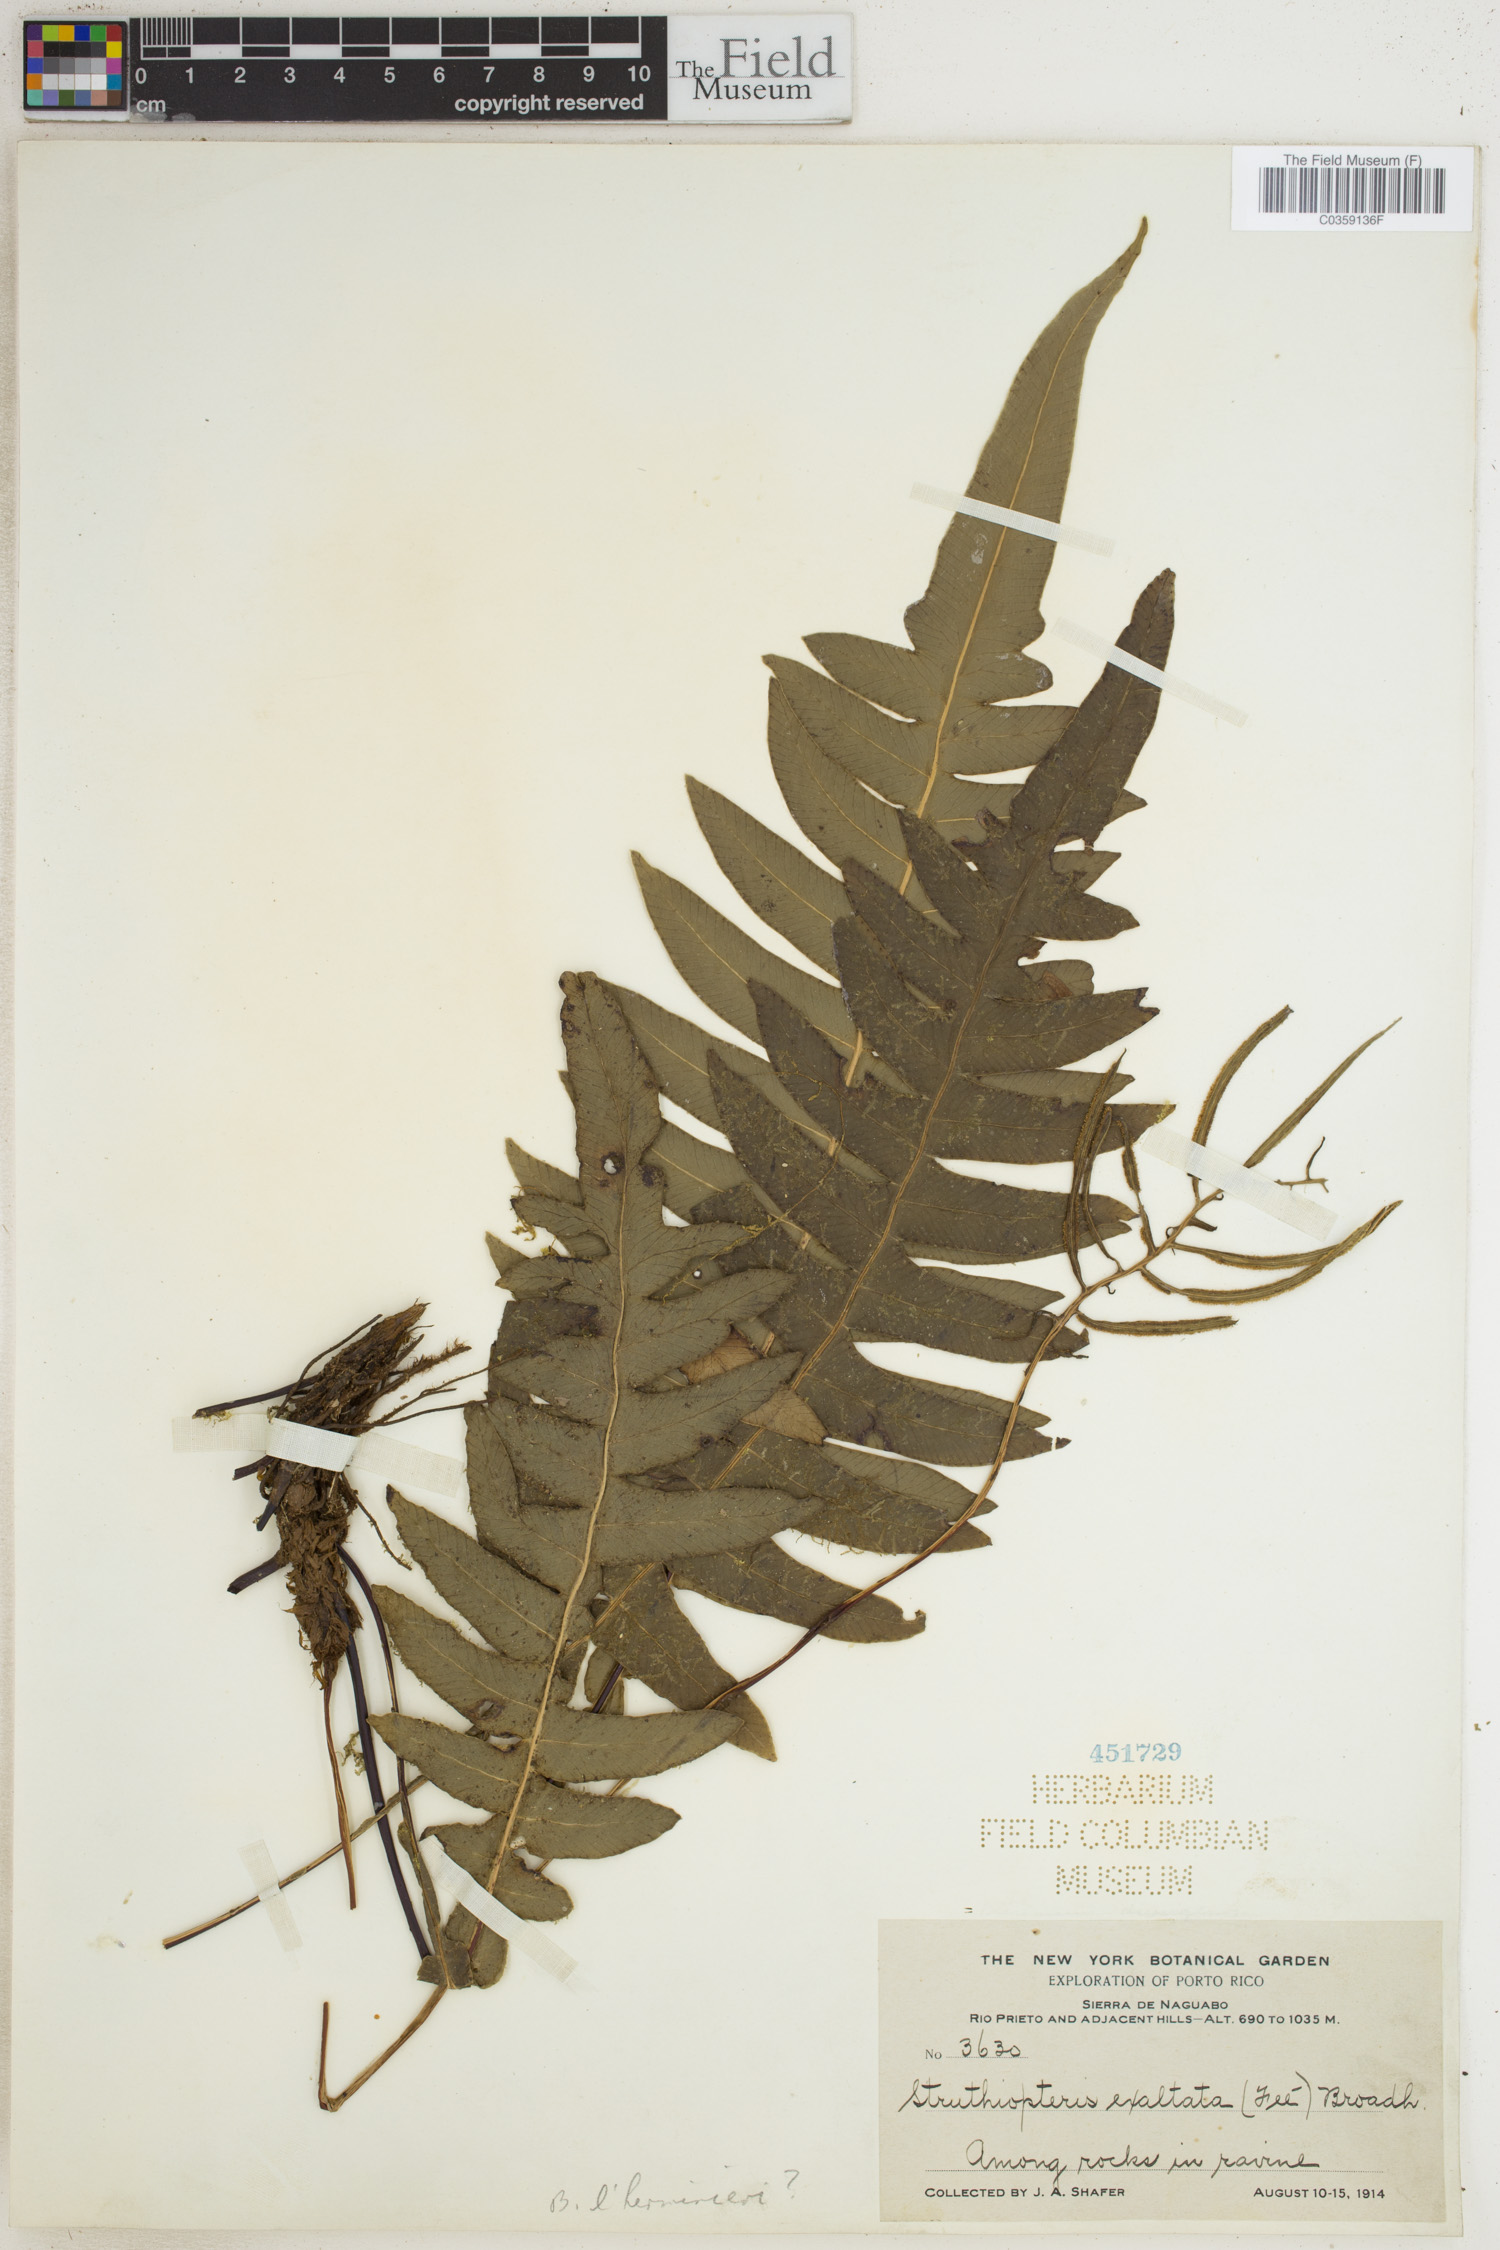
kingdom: Plantae
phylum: Tracheophyta
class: Polypodiopsida
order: Polypodiales
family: Blechnaceae
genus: Austroblechnum
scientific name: Austroblechnum divergens
